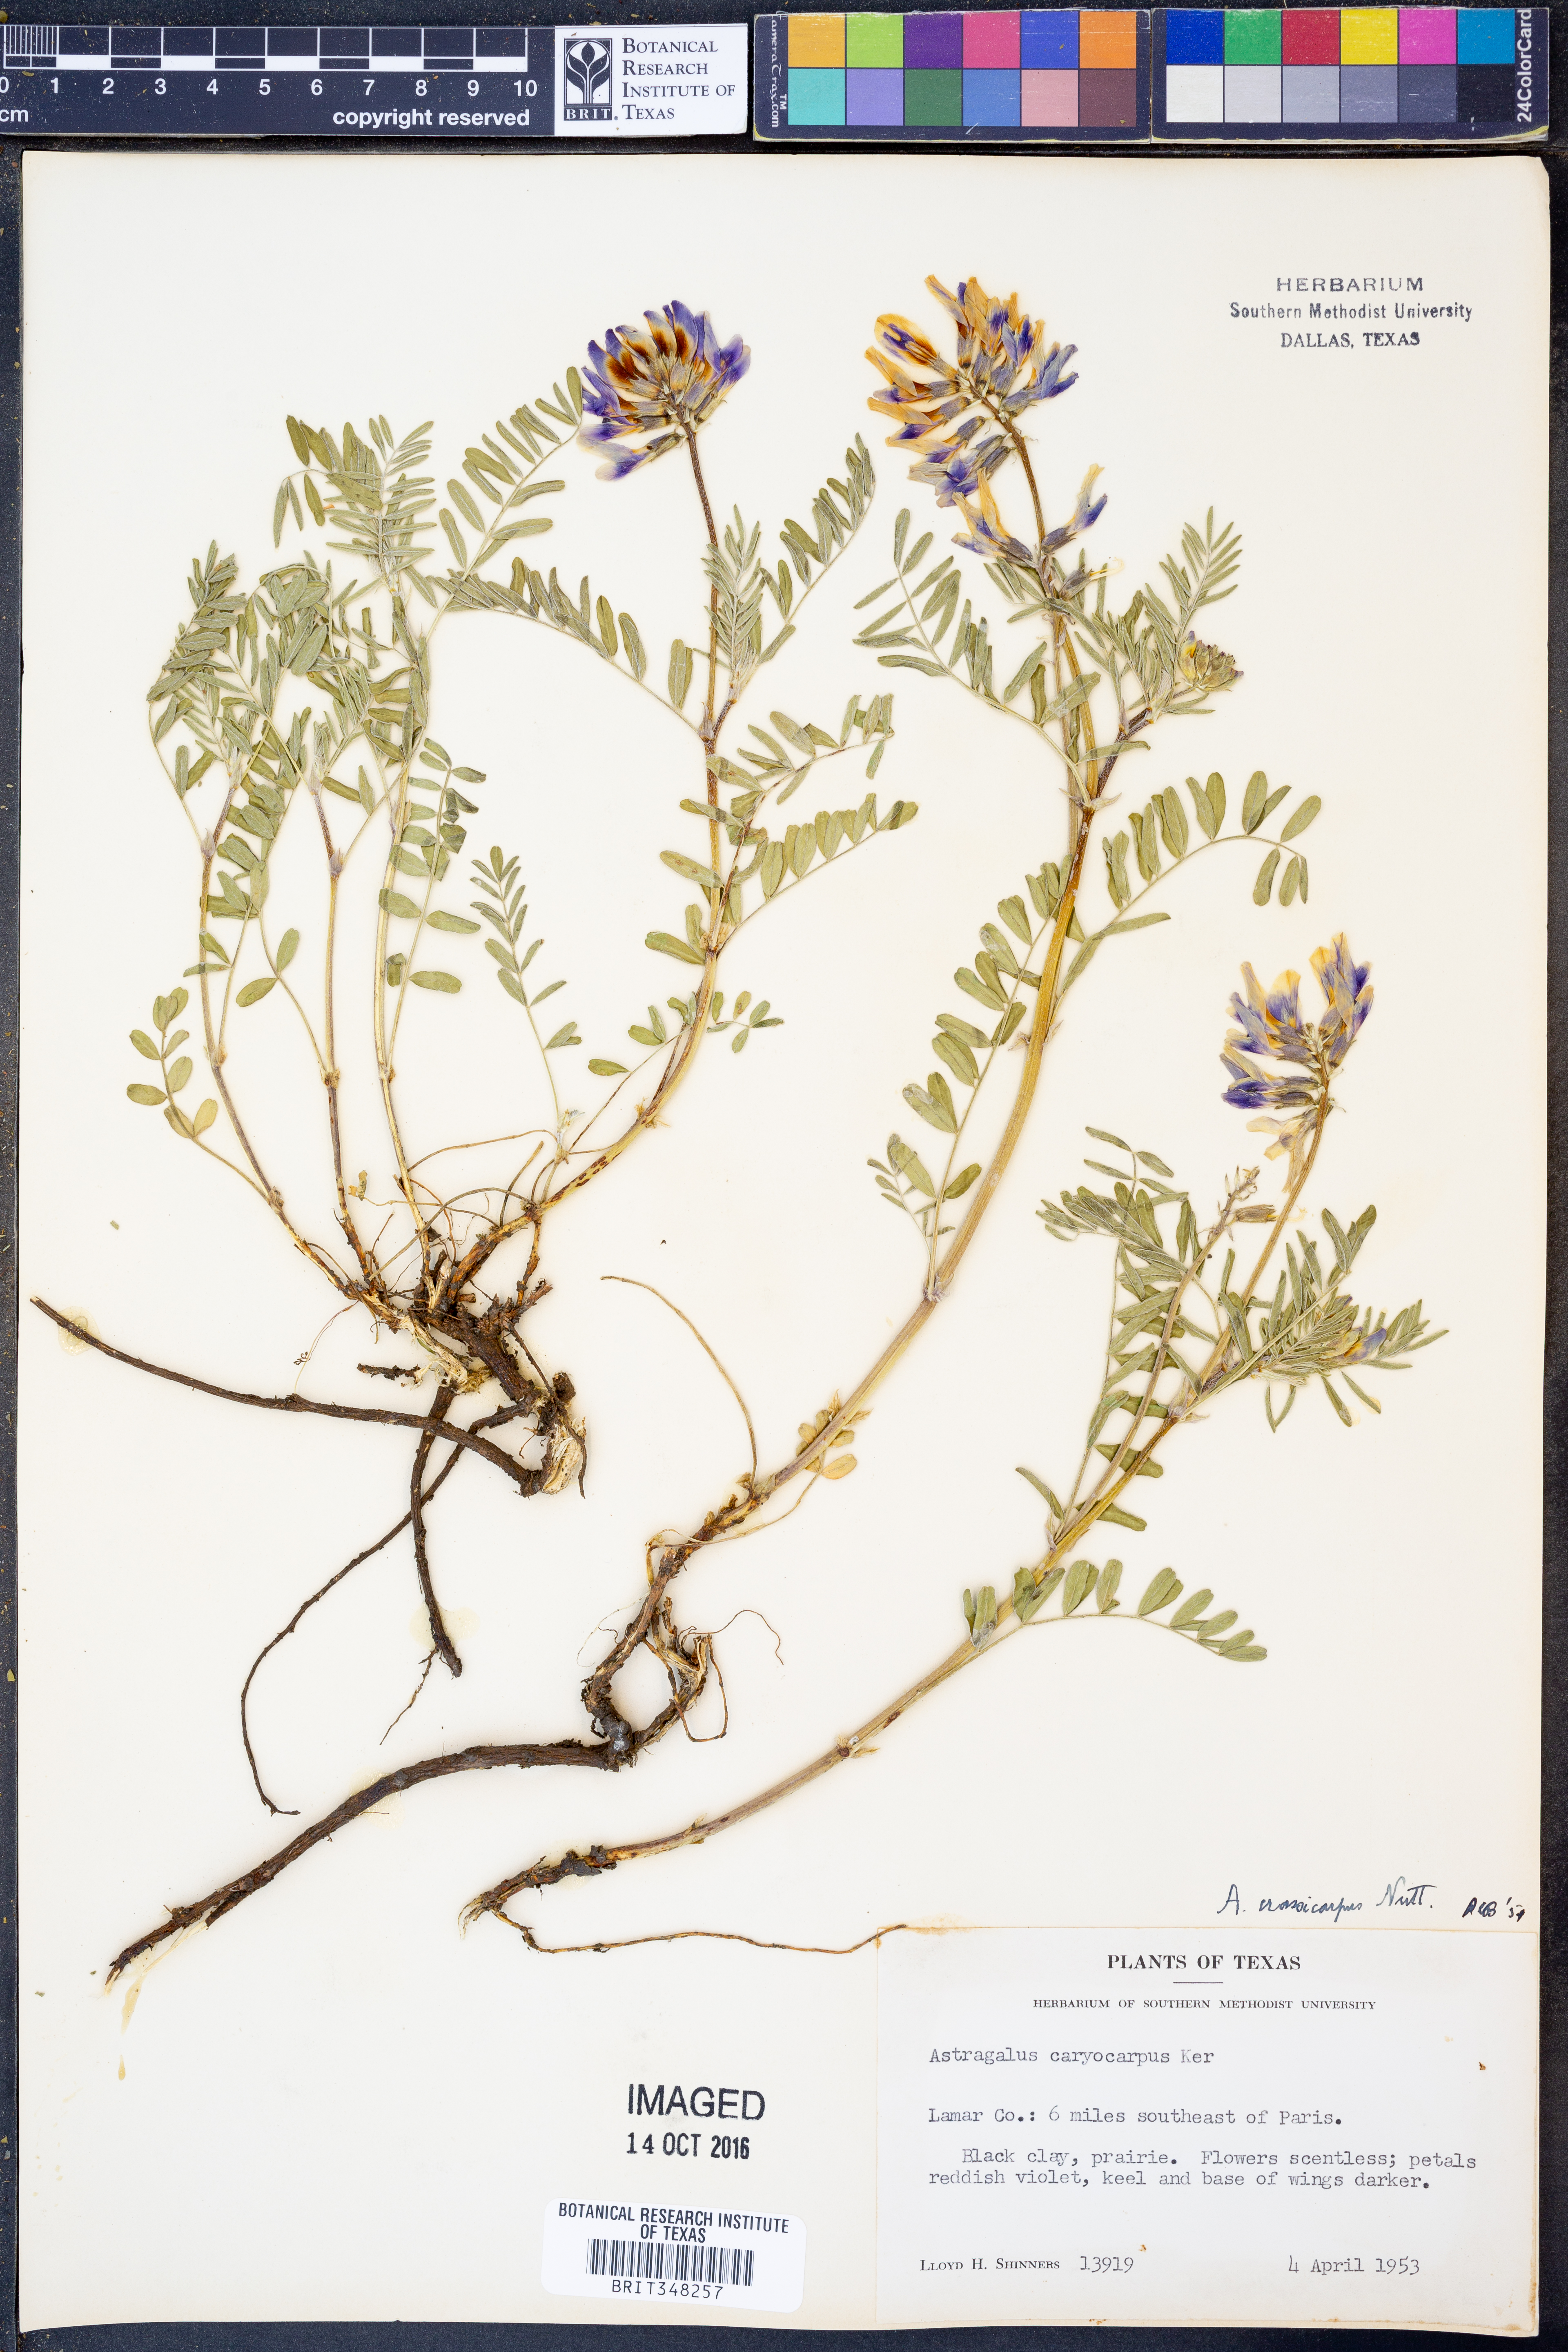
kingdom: Plantae
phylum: Tracheophyta
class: Magnoliopsida
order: Fabales
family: Fabaceae
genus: Astragalus
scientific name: Astragalus crassicarpus
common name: Ground-plum milk-vetch
